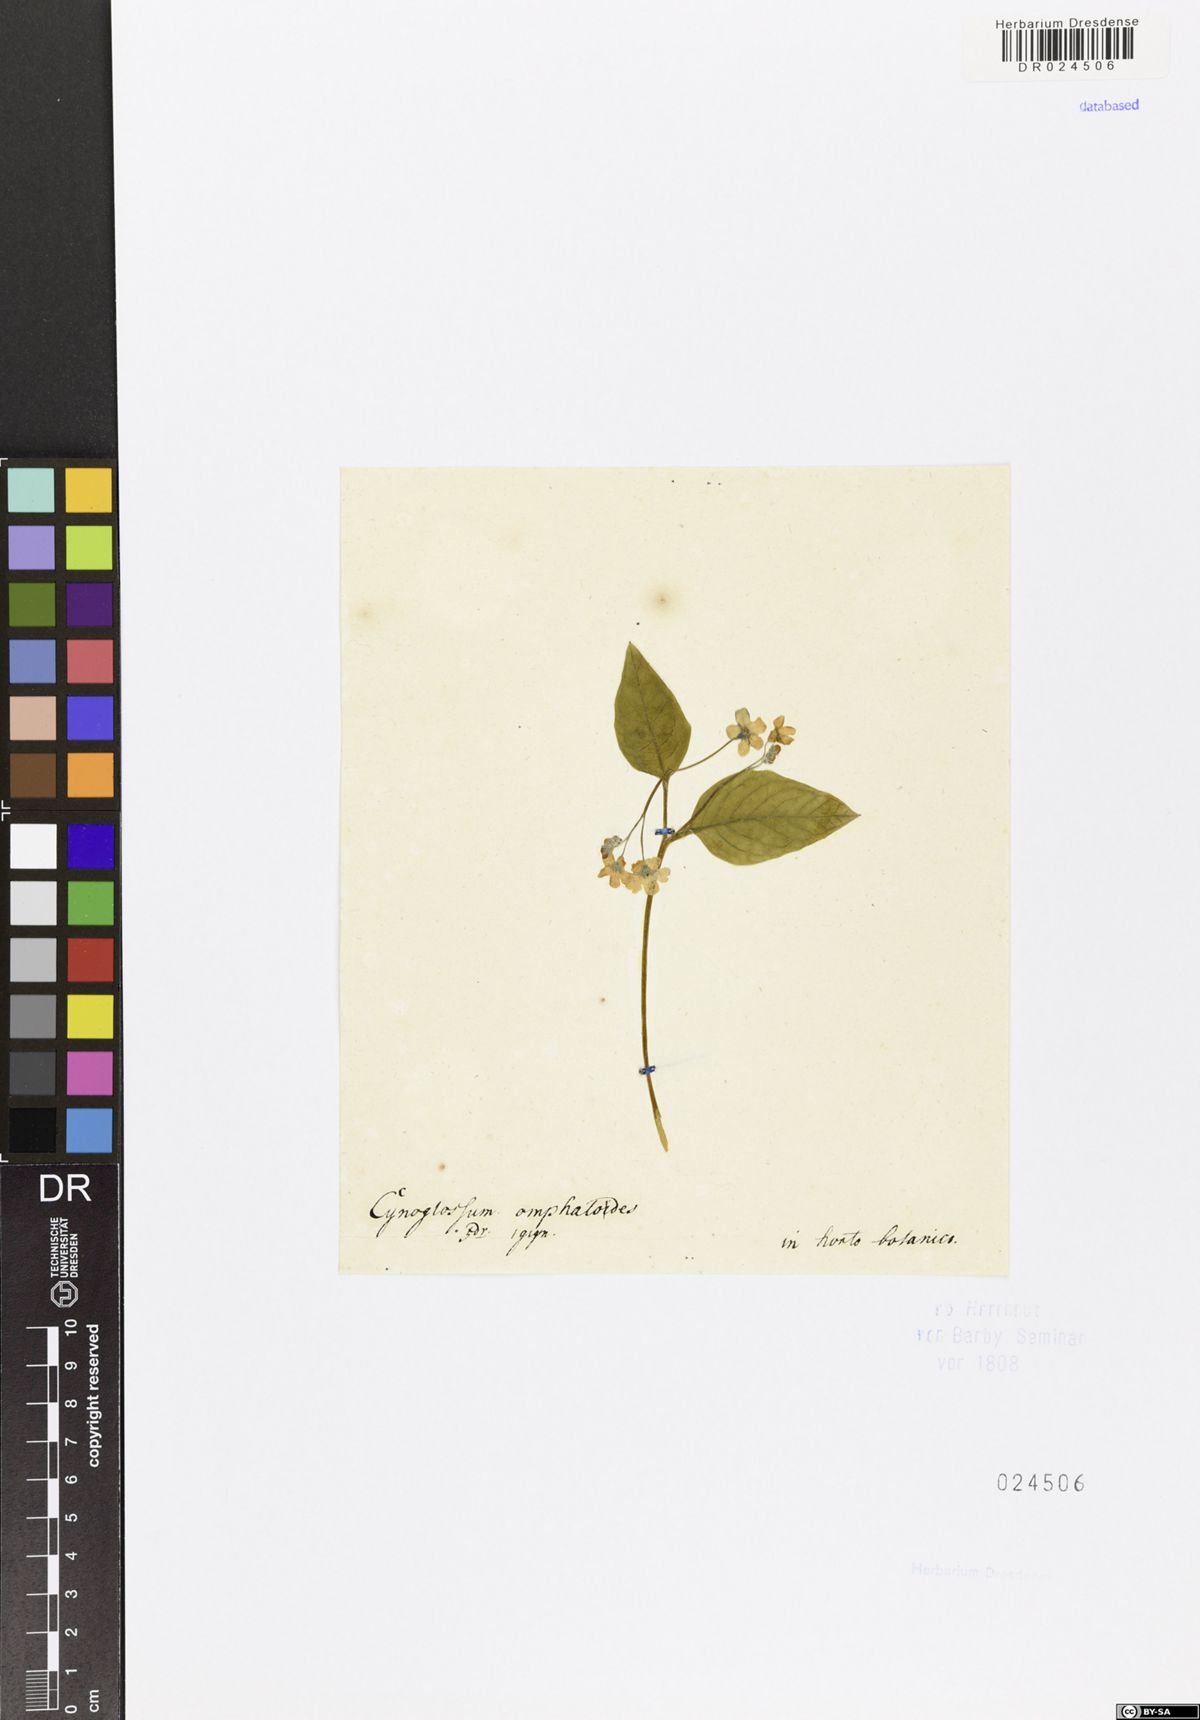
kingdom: Plantae
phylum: Tracheophyta
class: Magnoliopsida
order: Boraginales
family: Boraginaceae
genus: Omphalodes
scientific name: Omphalodes verna
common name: Blue-eyed-mary
